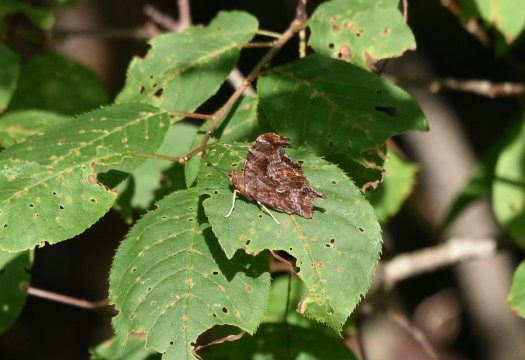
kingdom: Animalia
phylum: Arthropoda
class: Insecta
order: Lepidoptera
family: Nymphalidae
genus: Polygonia
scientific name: Polygonia comma
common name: Eastern Comma
